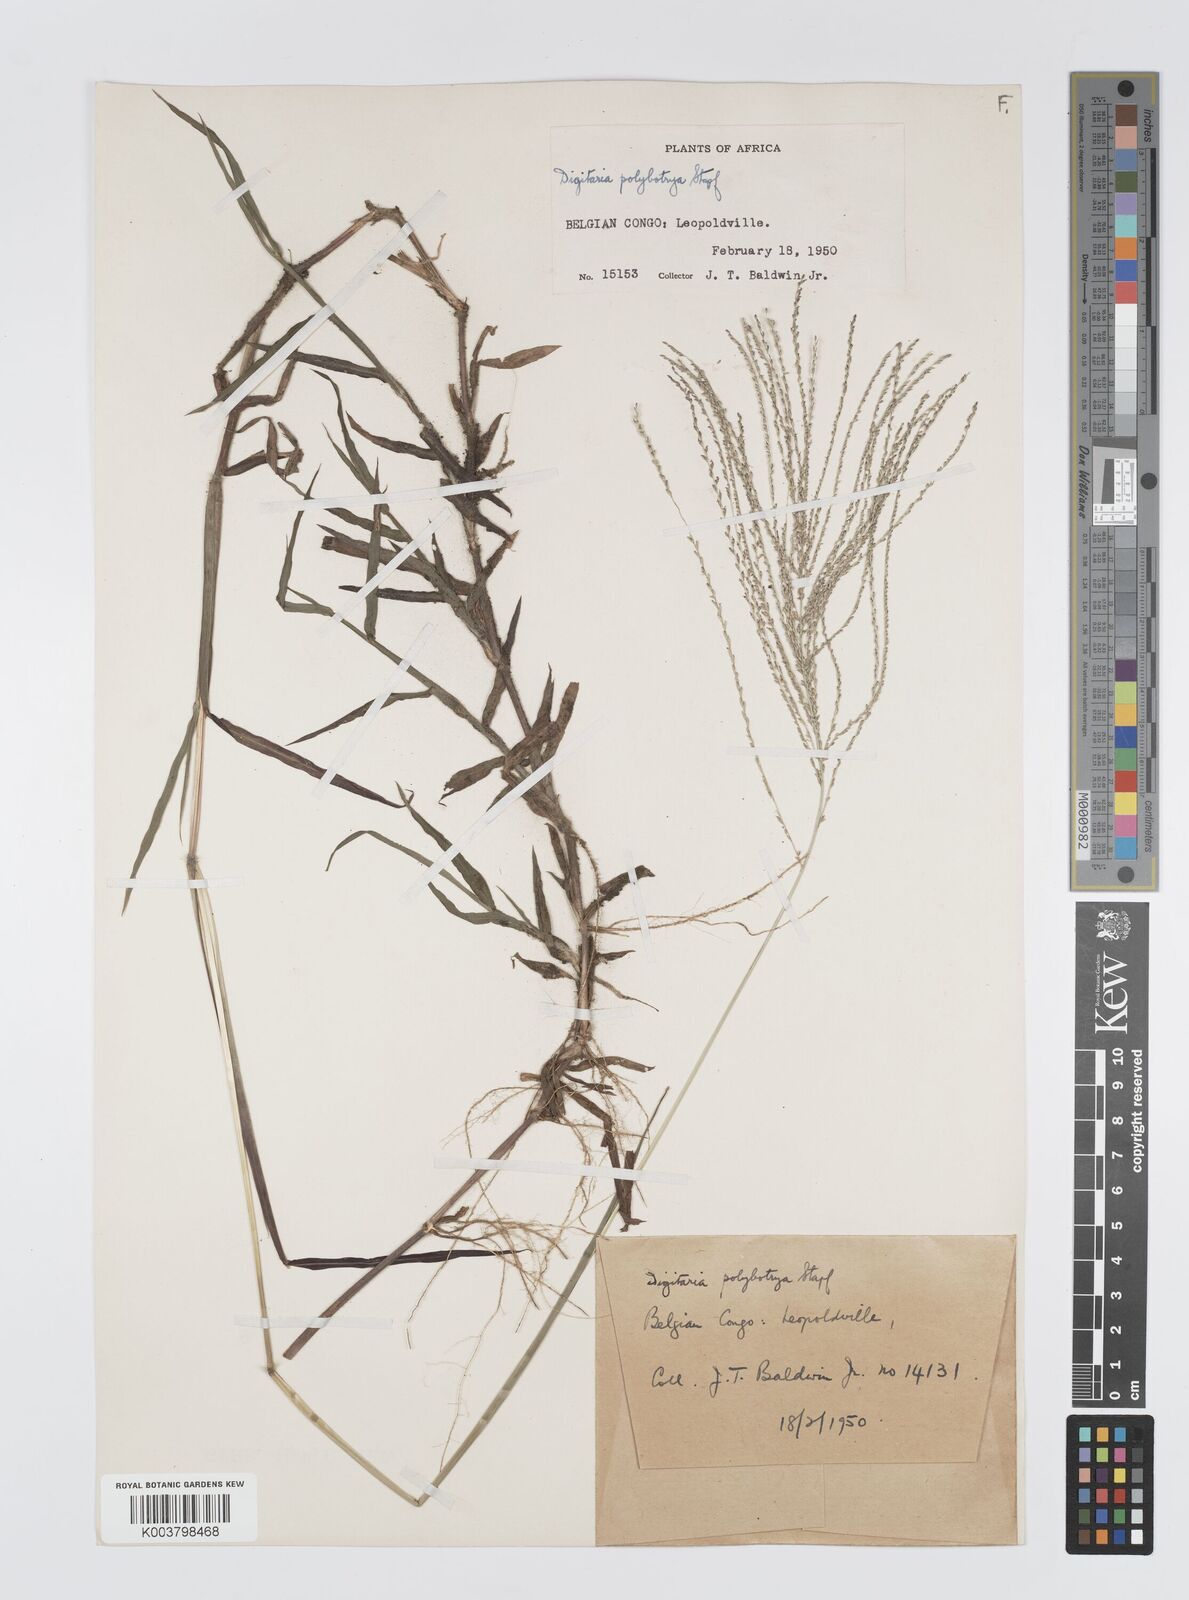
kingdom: Plantae
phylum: Tracheophyta
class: Liliopsida
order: Poales
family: Poaceae
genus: Digitaria
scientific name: Digitaria leptorhachis
